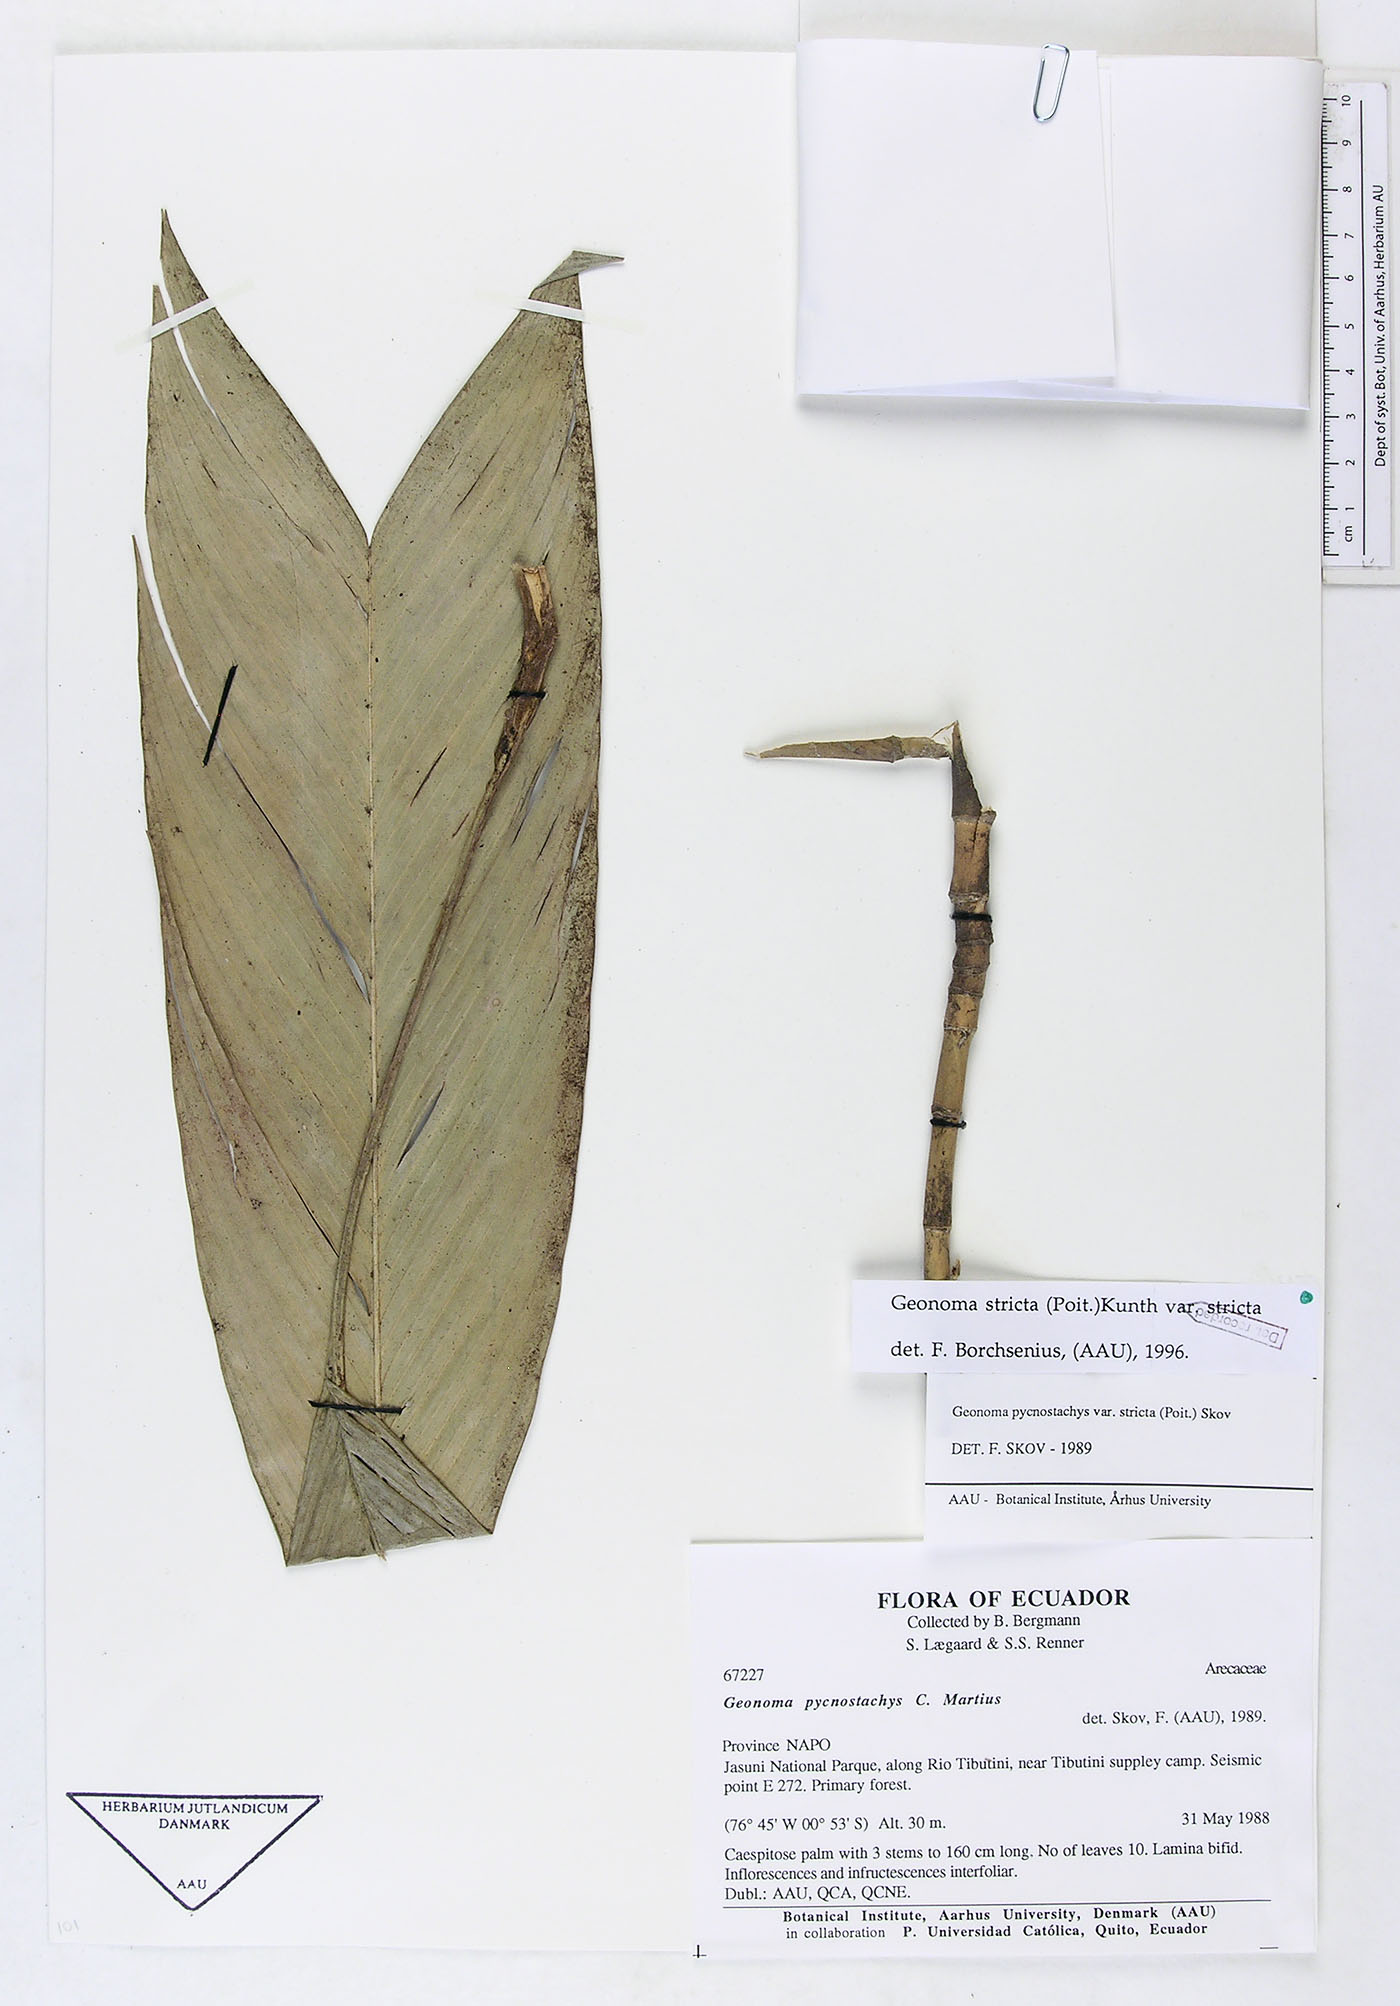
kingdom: Plantae
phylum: Tracheophyta
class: Liliopsida
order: Arecales
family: Arecaceae
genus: Geonoma
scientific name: Geonoma stricta
